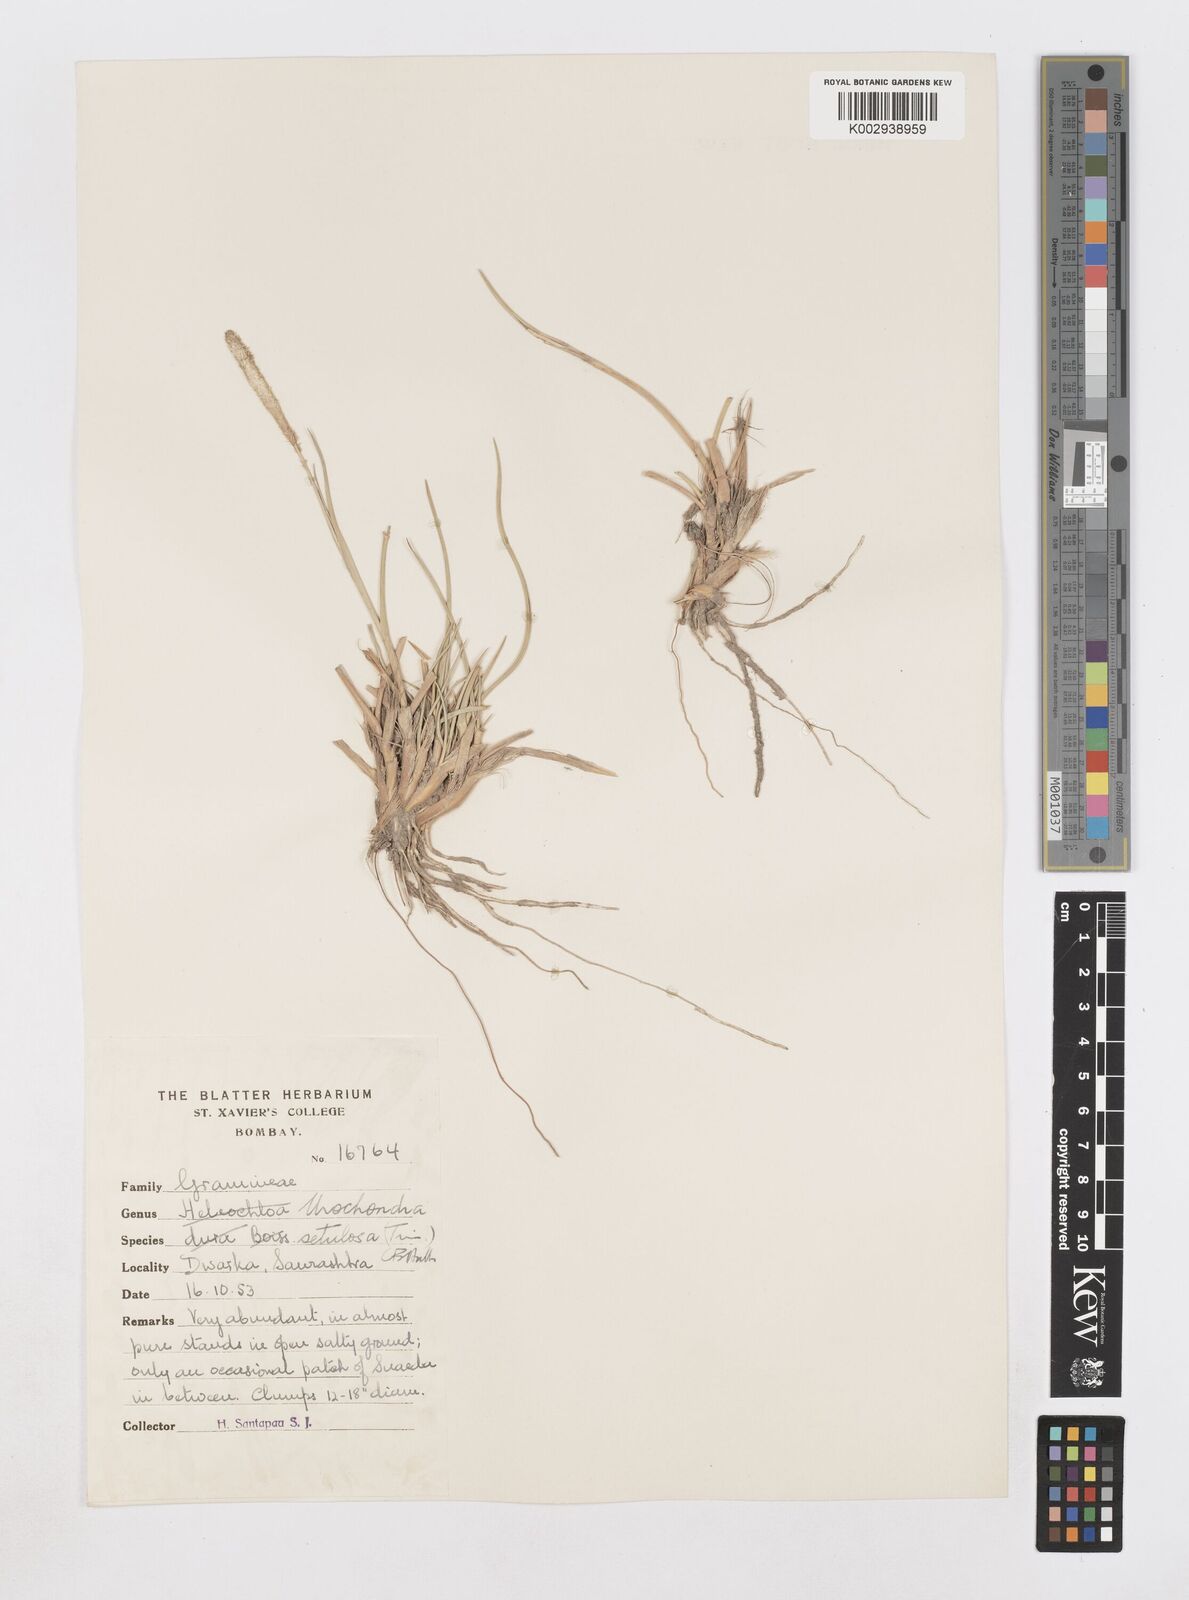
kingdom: Plantae
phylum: Tracheophyta
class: Liliopsida
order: Poales
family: Poaceae
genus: Urochondra
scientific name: Urochondra setulosa
